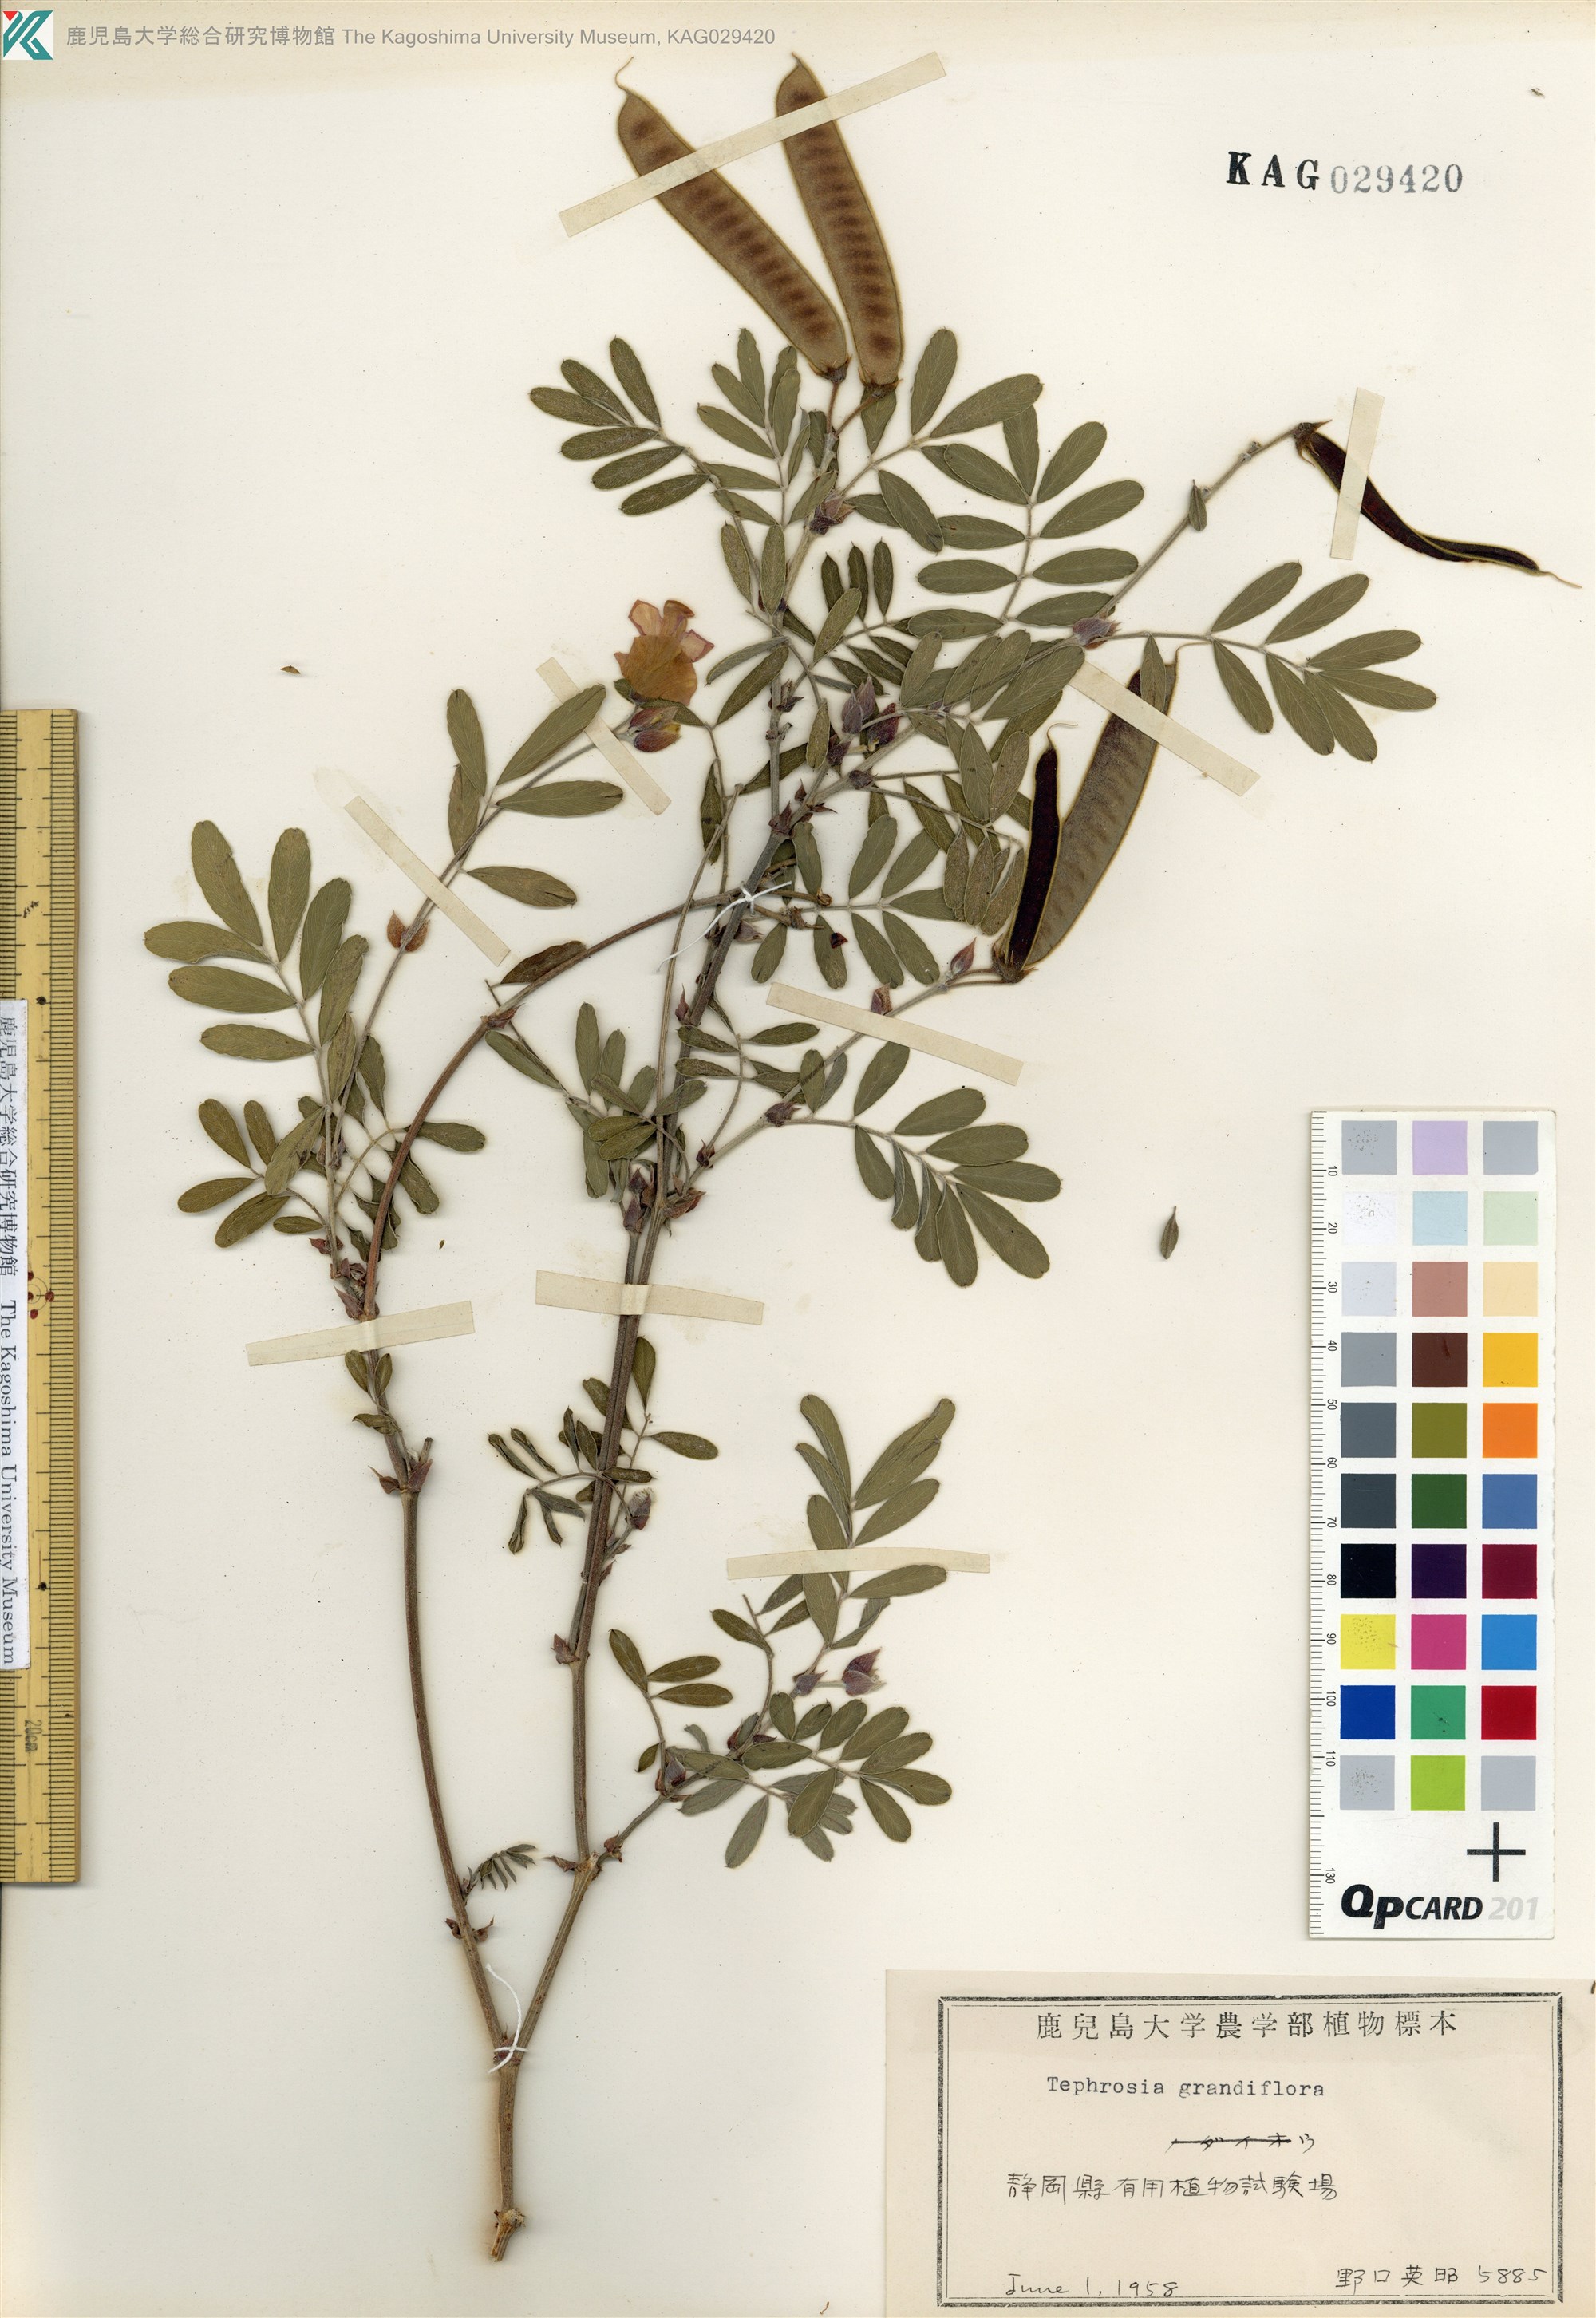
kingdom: Plantae
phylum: Tracheophyta
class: Magnoliopsida
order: Fabales
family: Fabaceae
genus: Tephrosia
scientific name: Tephrosia grandiflora
